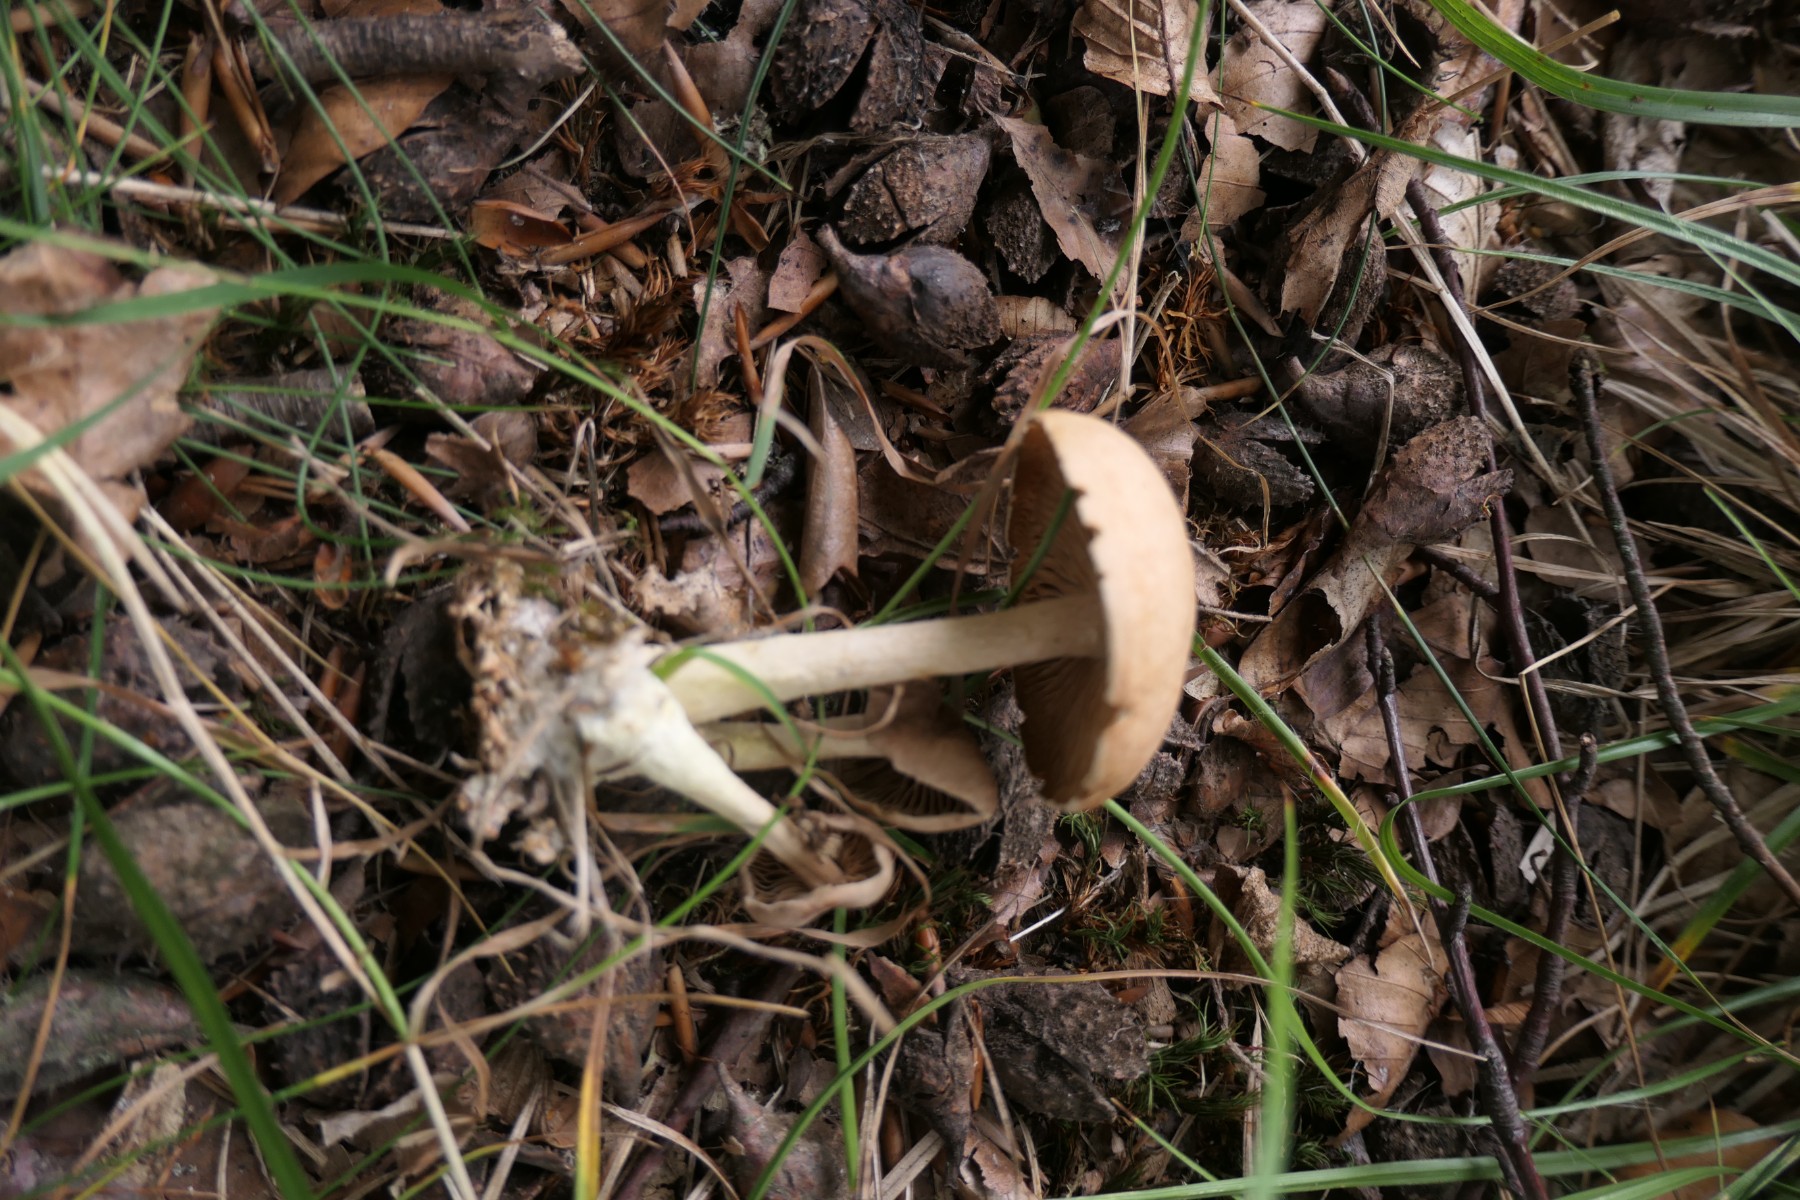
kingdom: Fungi
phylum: Basidiomycota
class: Agaricomycetes
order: Agaricales
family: Omphalotaceae
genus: Gymnopus
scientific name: Gymnopus dryophilus
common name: løv-fladhat
